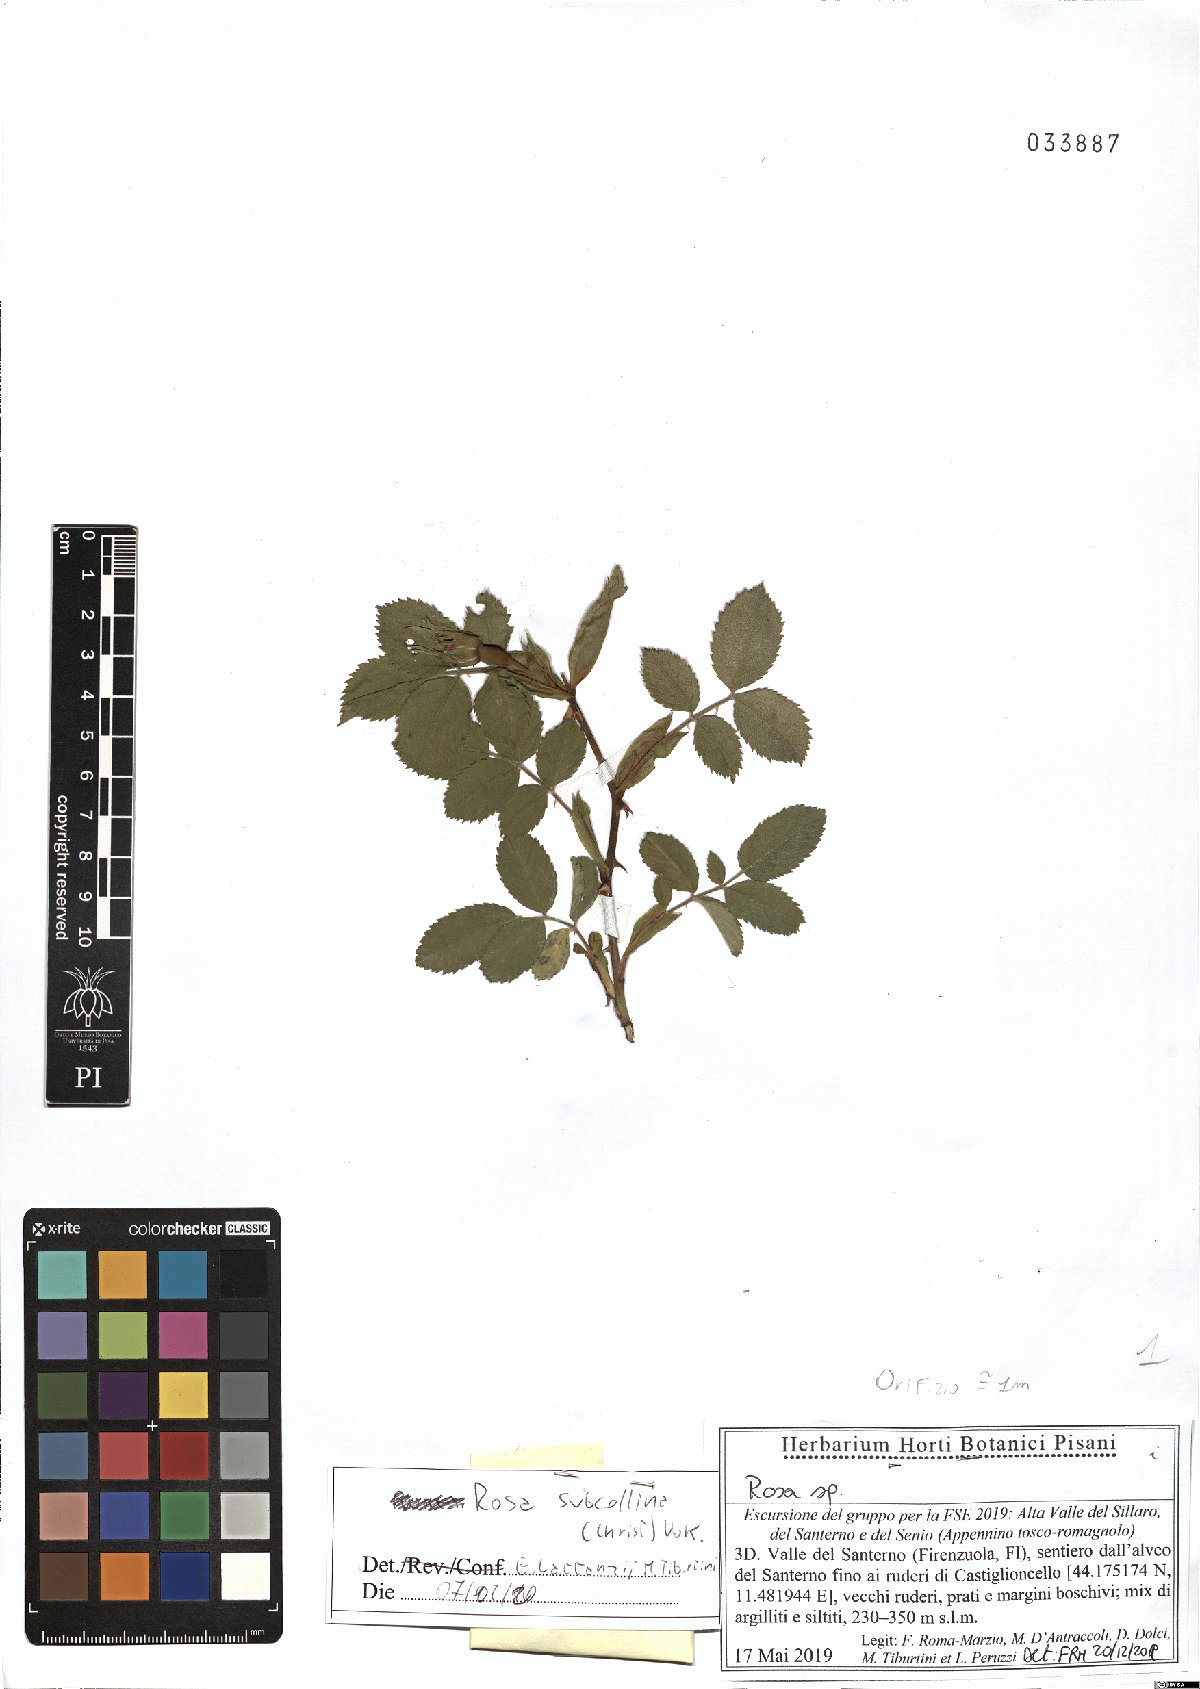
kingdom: Plantae
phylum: Tracheophyta
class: Magnoliopsida
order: Rosales
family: Rosaceae
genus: Rosa
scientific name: Rosa subcollina
